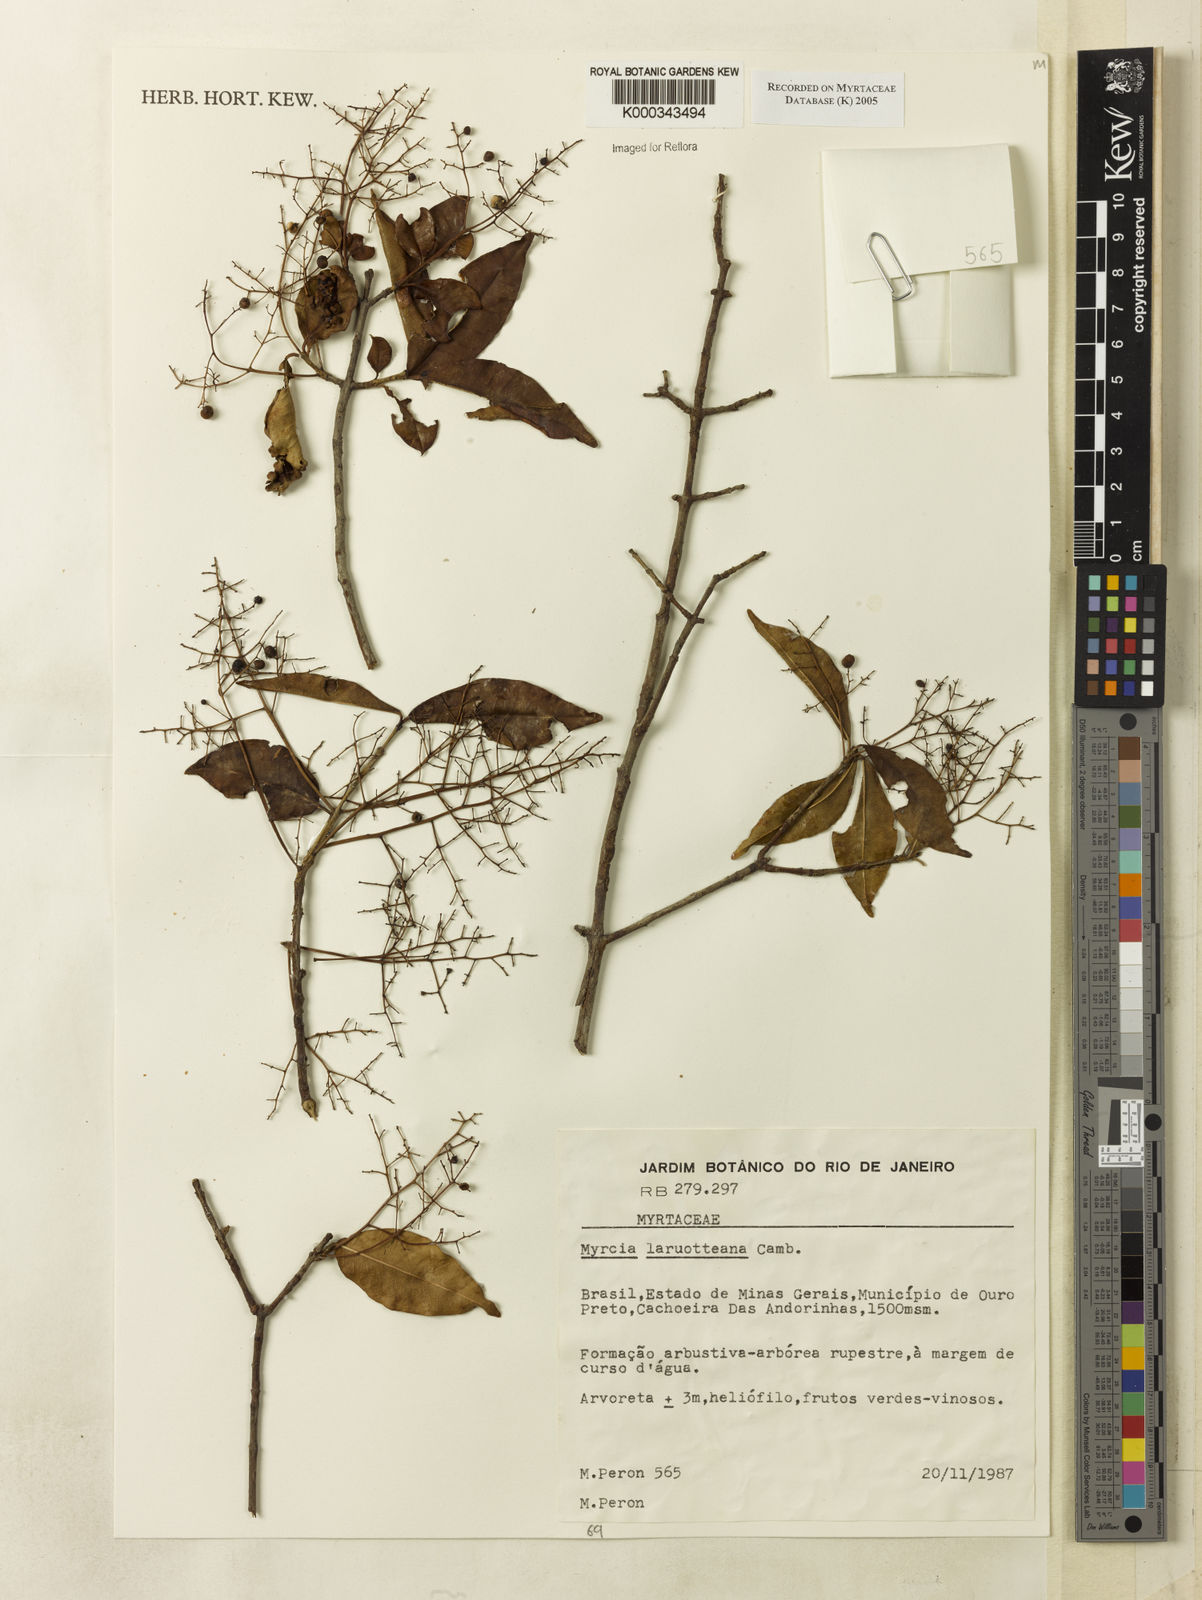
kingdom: Plantae
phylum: Tracheophyta
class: Magnoliopsida
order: Myrtales
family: Myrtaceae
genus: Myrcia
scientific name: Myrcia laruotteana
